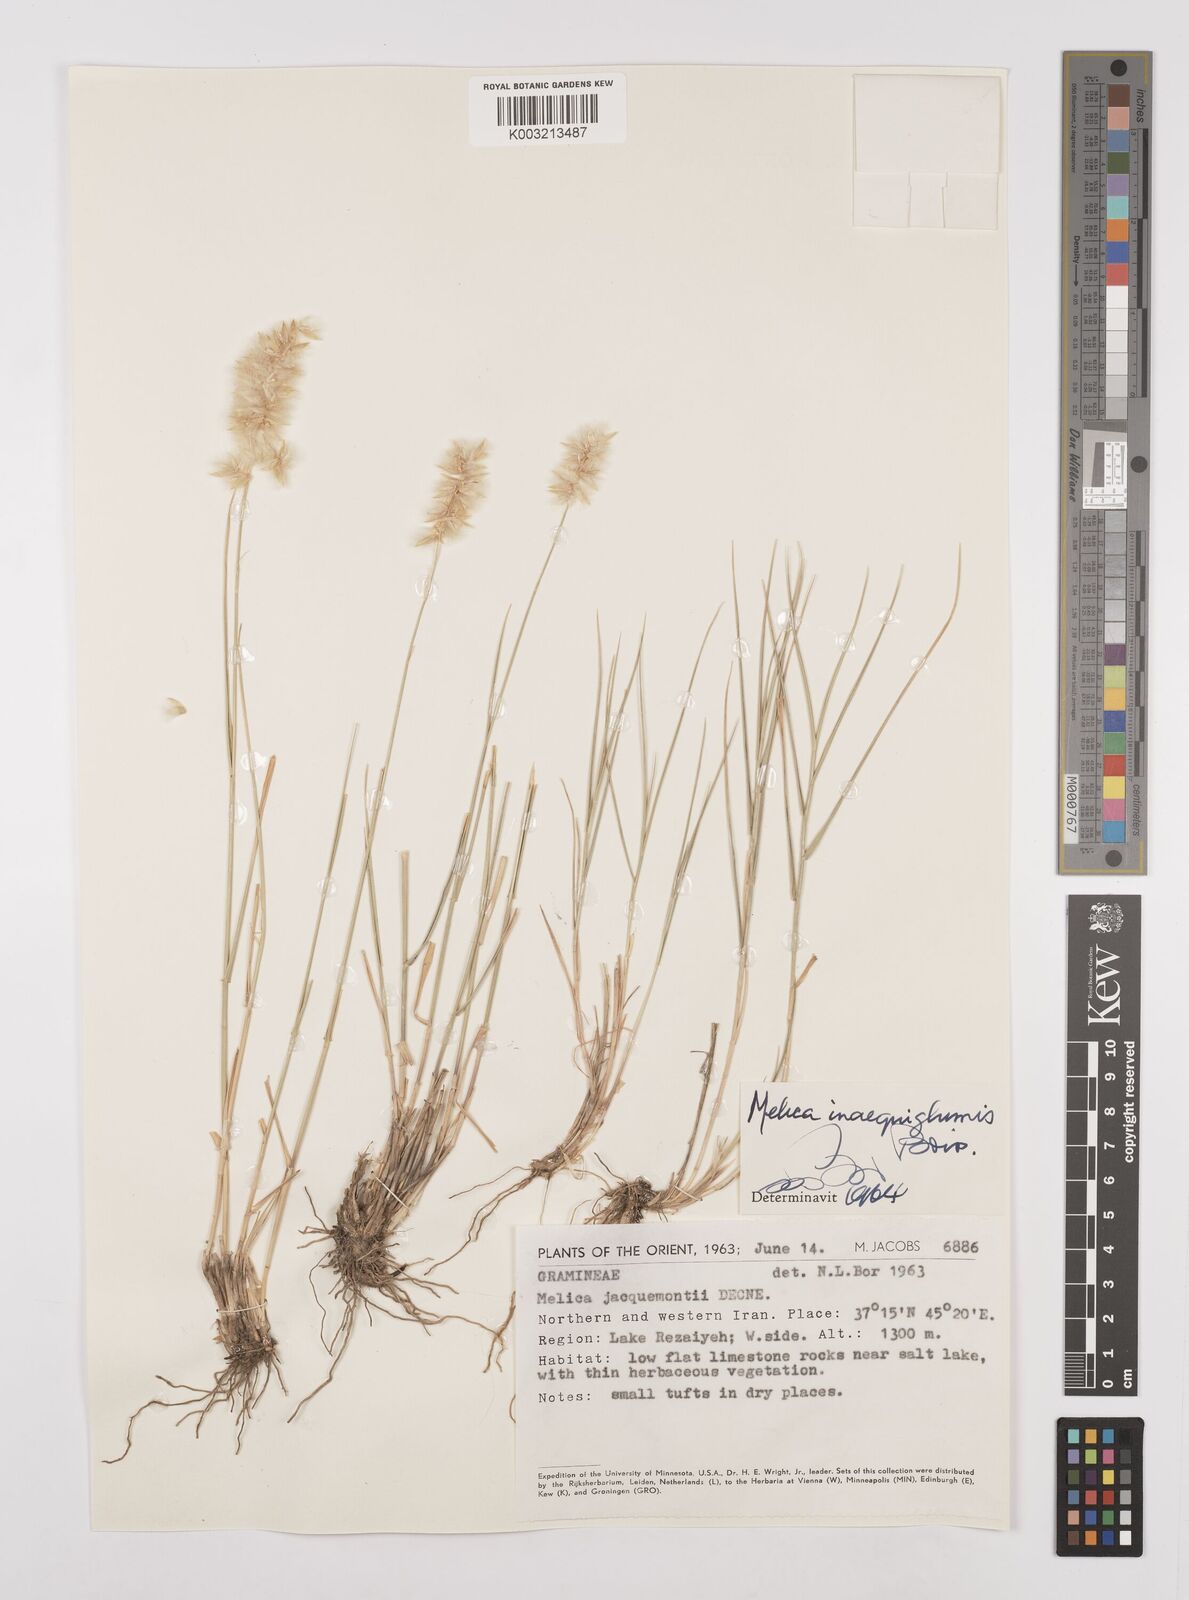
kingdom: Plantae
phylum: Tracheophyta
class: Liliopsida
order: Poales
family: Poaceae
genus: Melica
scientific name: Melica persica
